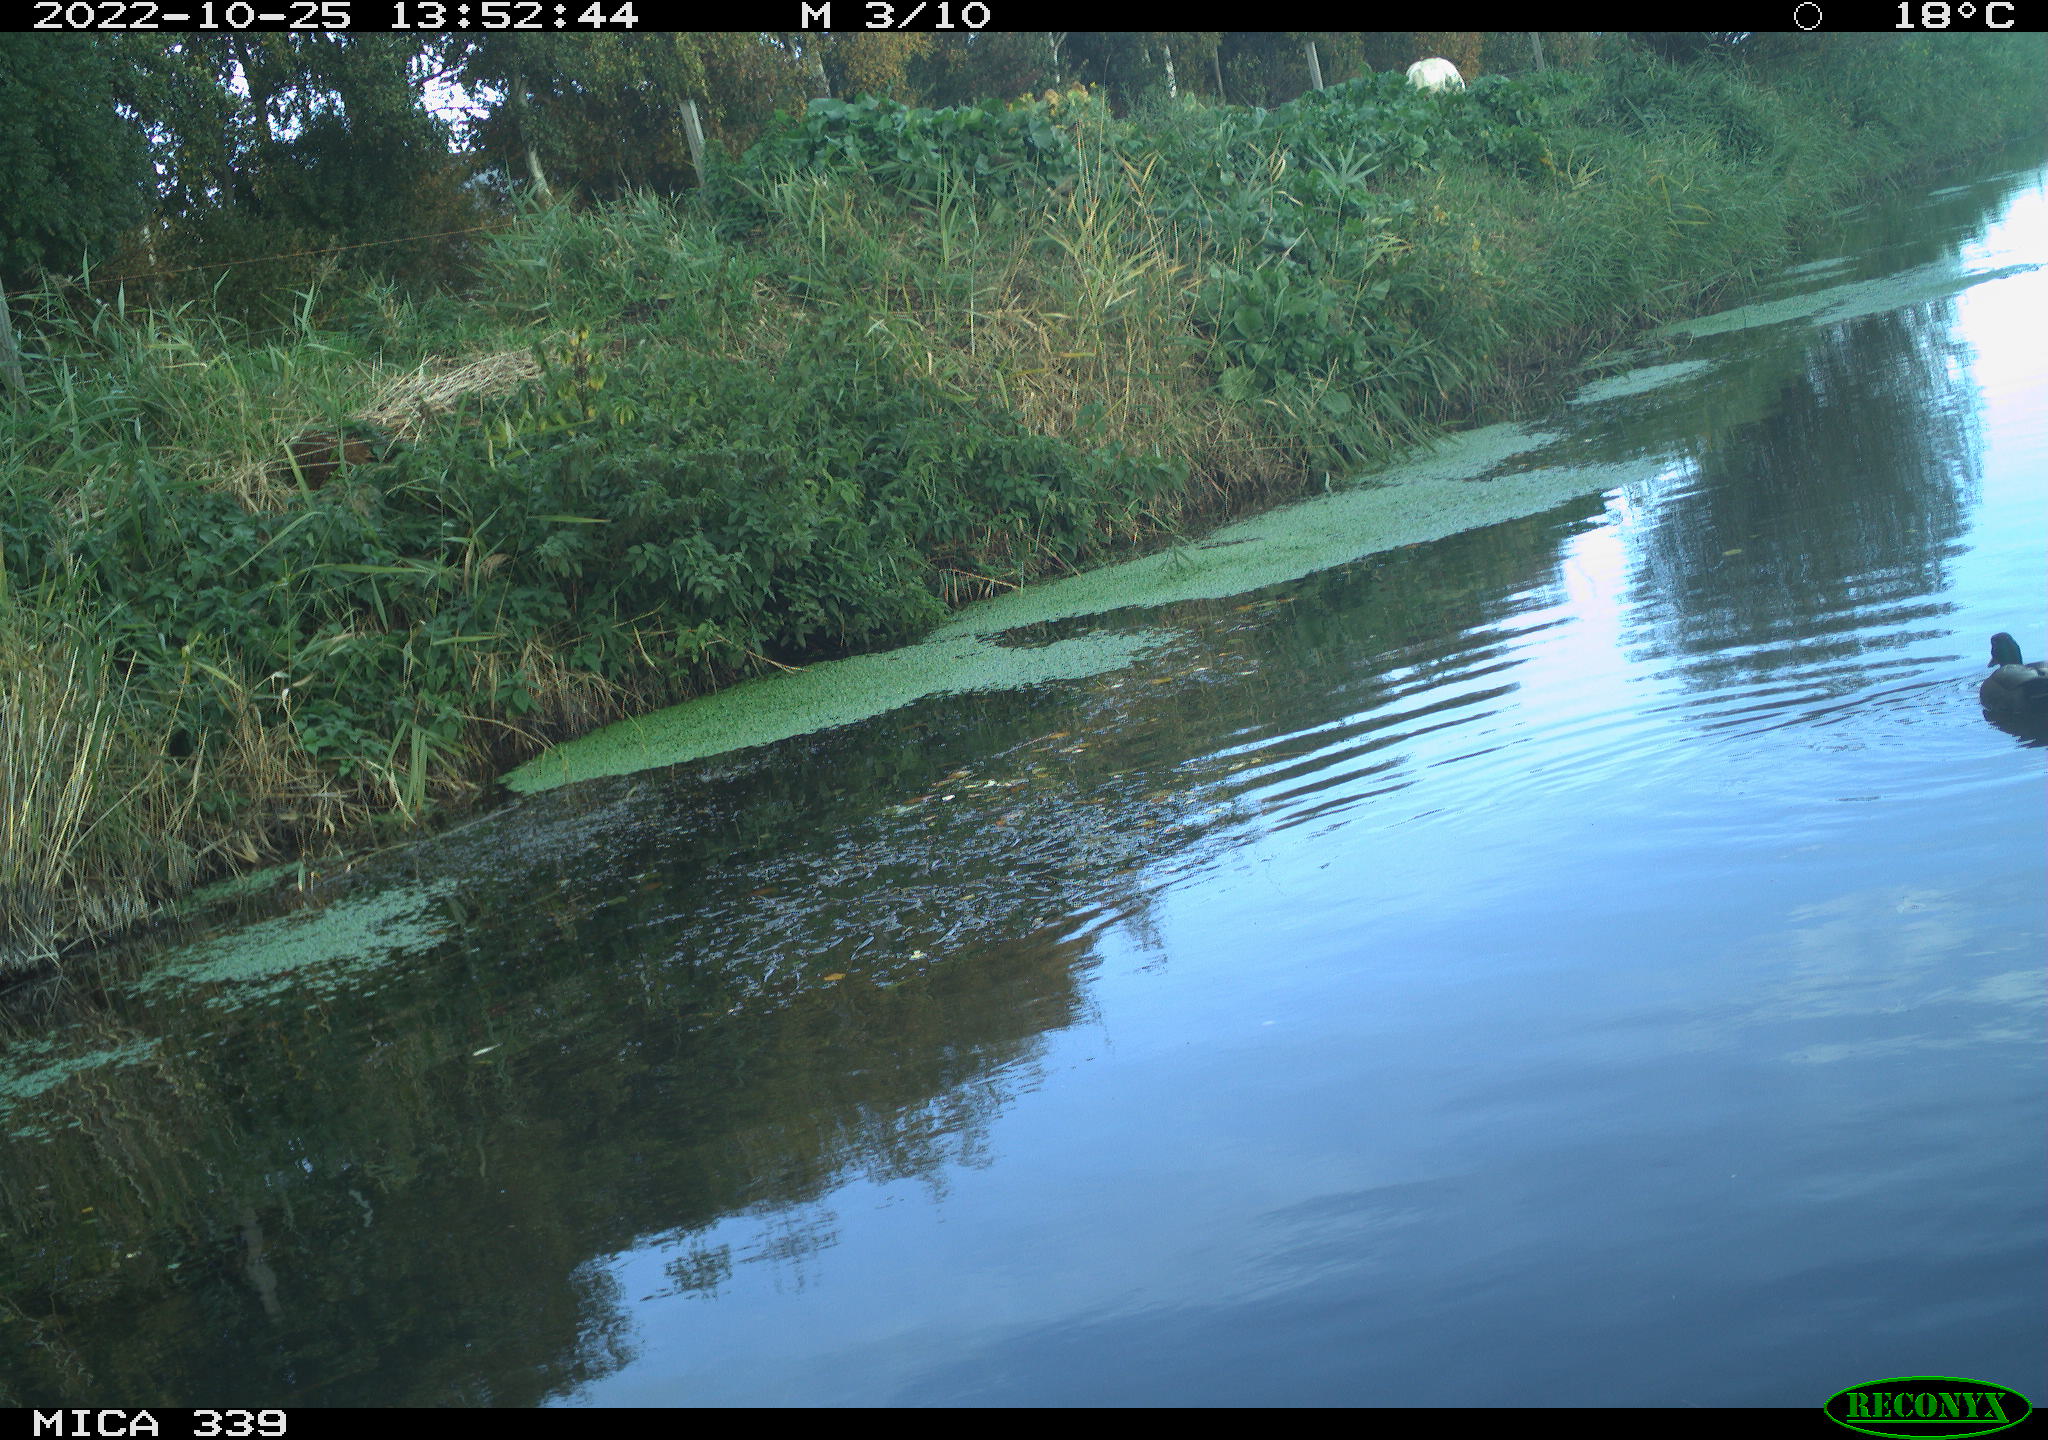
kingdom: Animalia
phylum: Chordata
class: Aves
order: Anseriformes
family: Anatidae
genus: Anas
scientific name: Anas platyrhynchos
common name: Mallard
